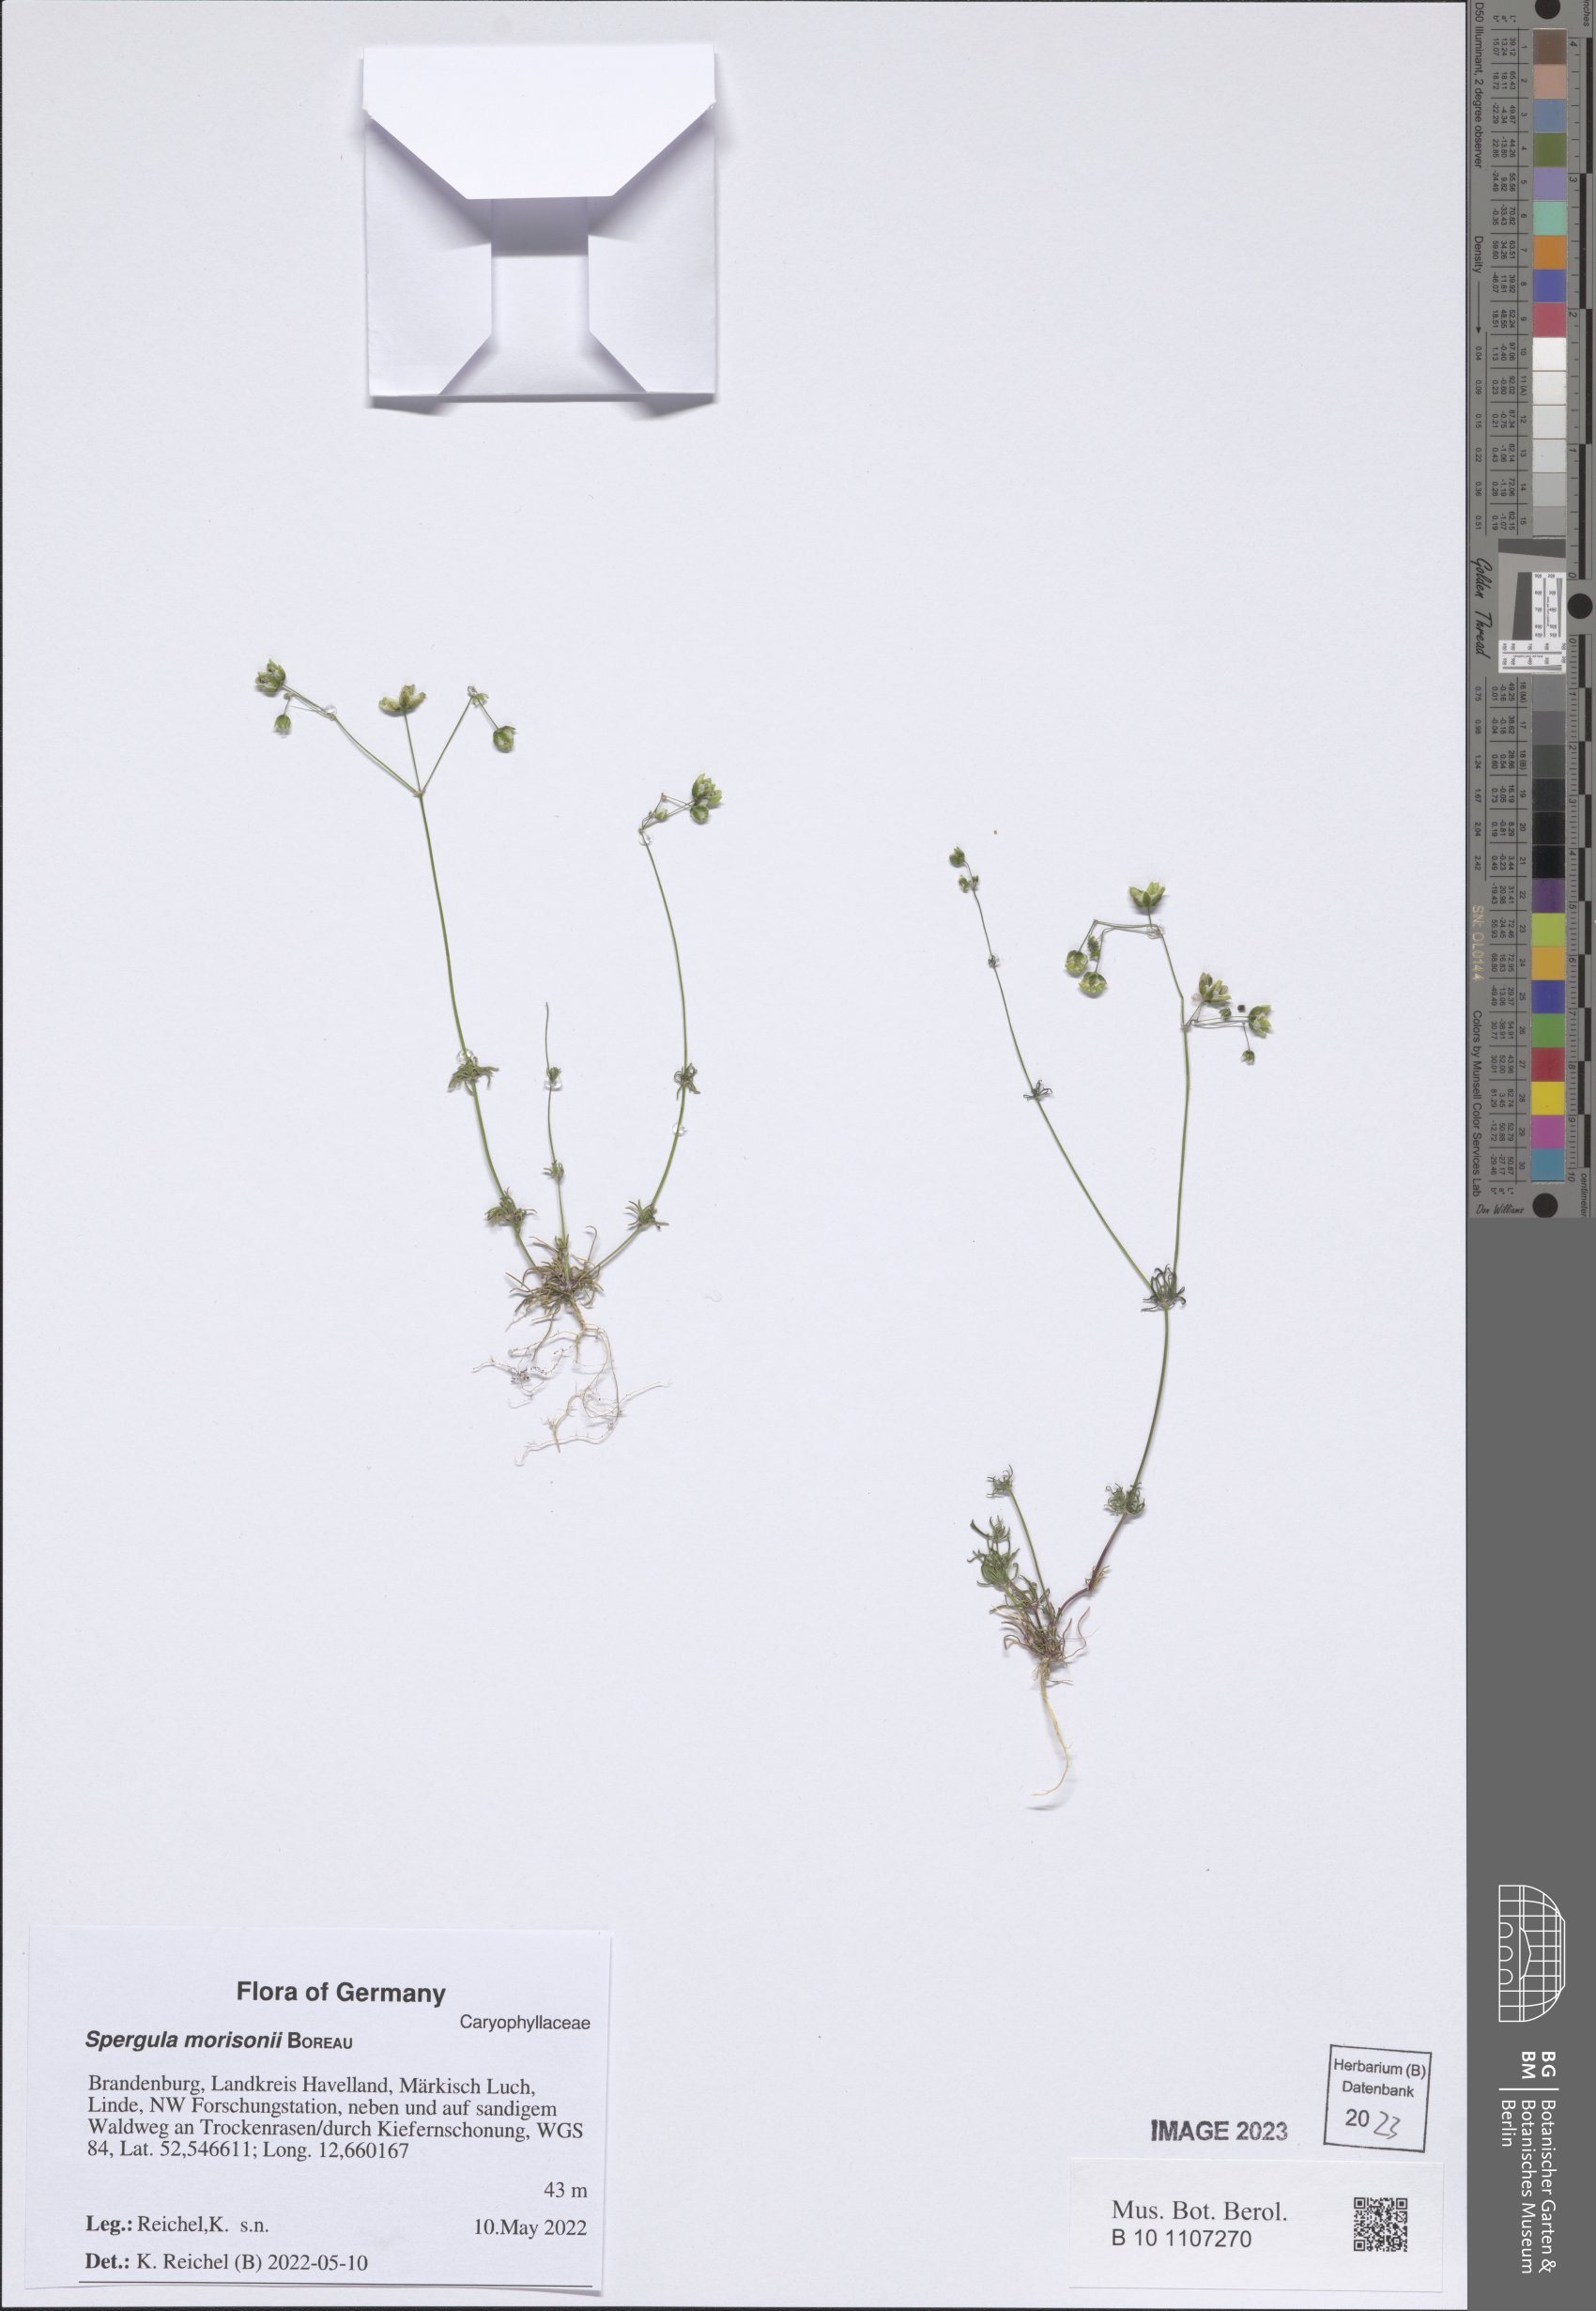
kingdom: Plantae
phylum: Tracheophyta
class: Magnoliopsida
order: Caryophyllales
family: Caryophyllaceae
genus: Spergula
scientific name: Spergula morisonii
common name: Pearlwort spurrey
